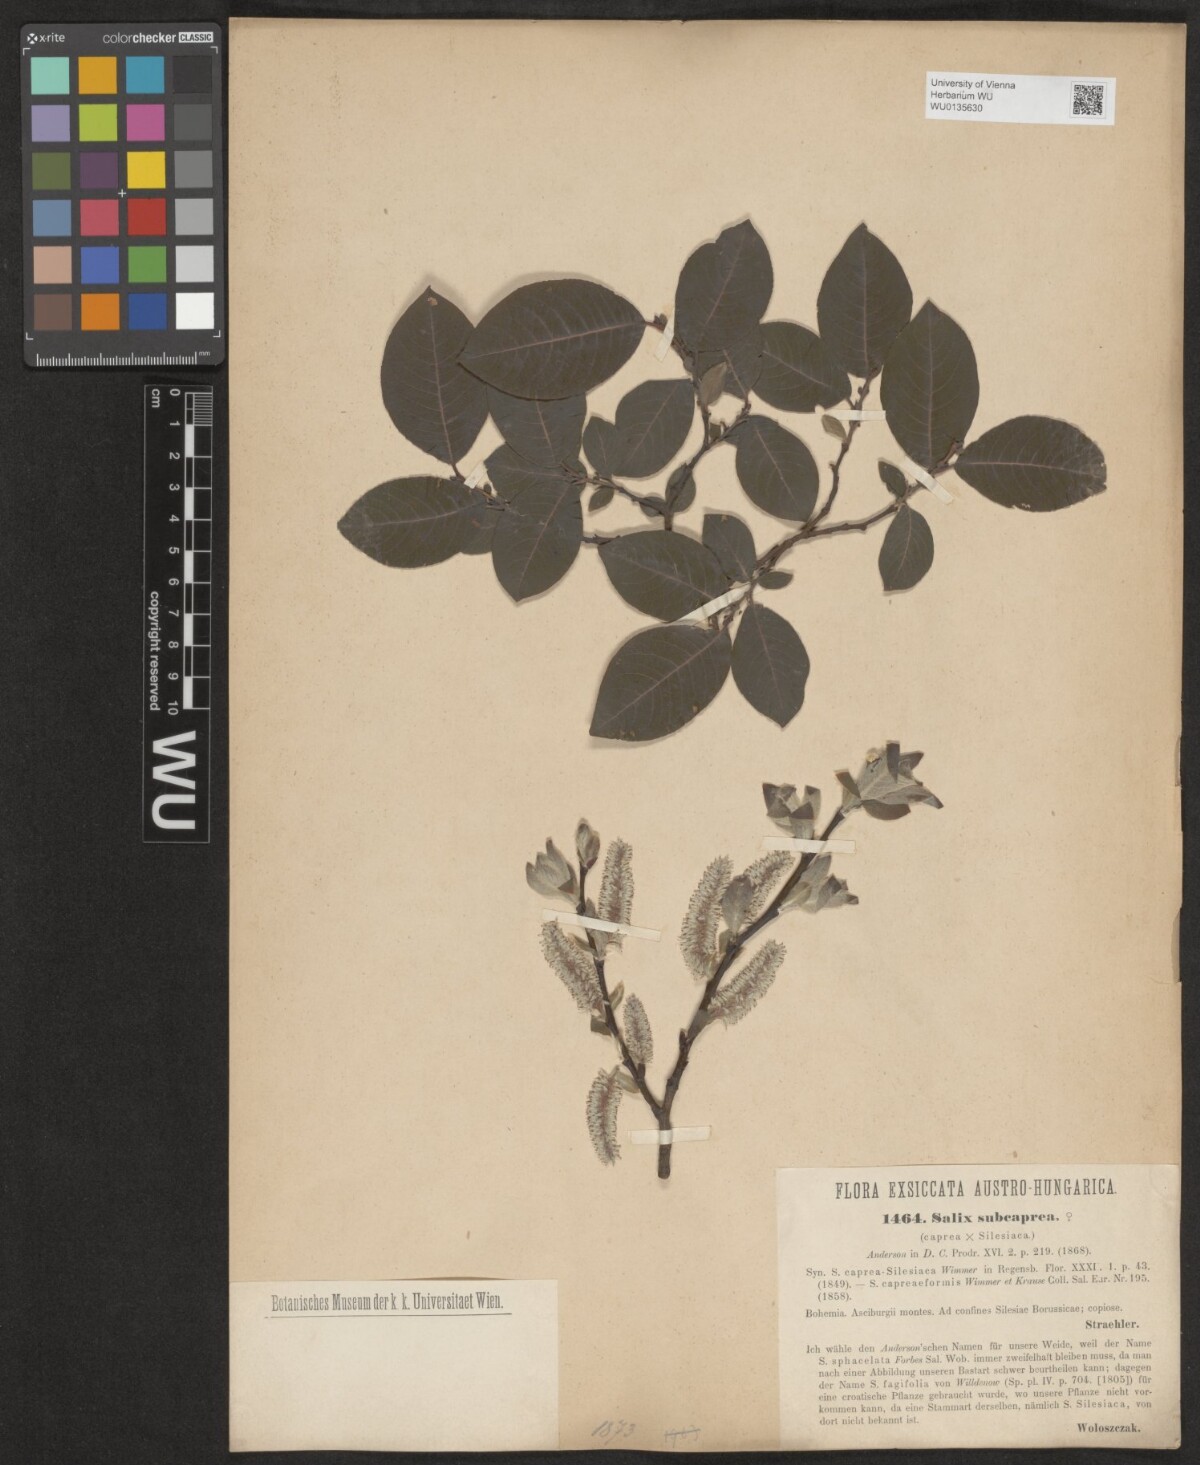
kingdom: Plantae
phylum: Tracheophyta
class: Magnoliopsida
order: Malpighiales
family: Salicaceae
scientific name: Salicaceae
